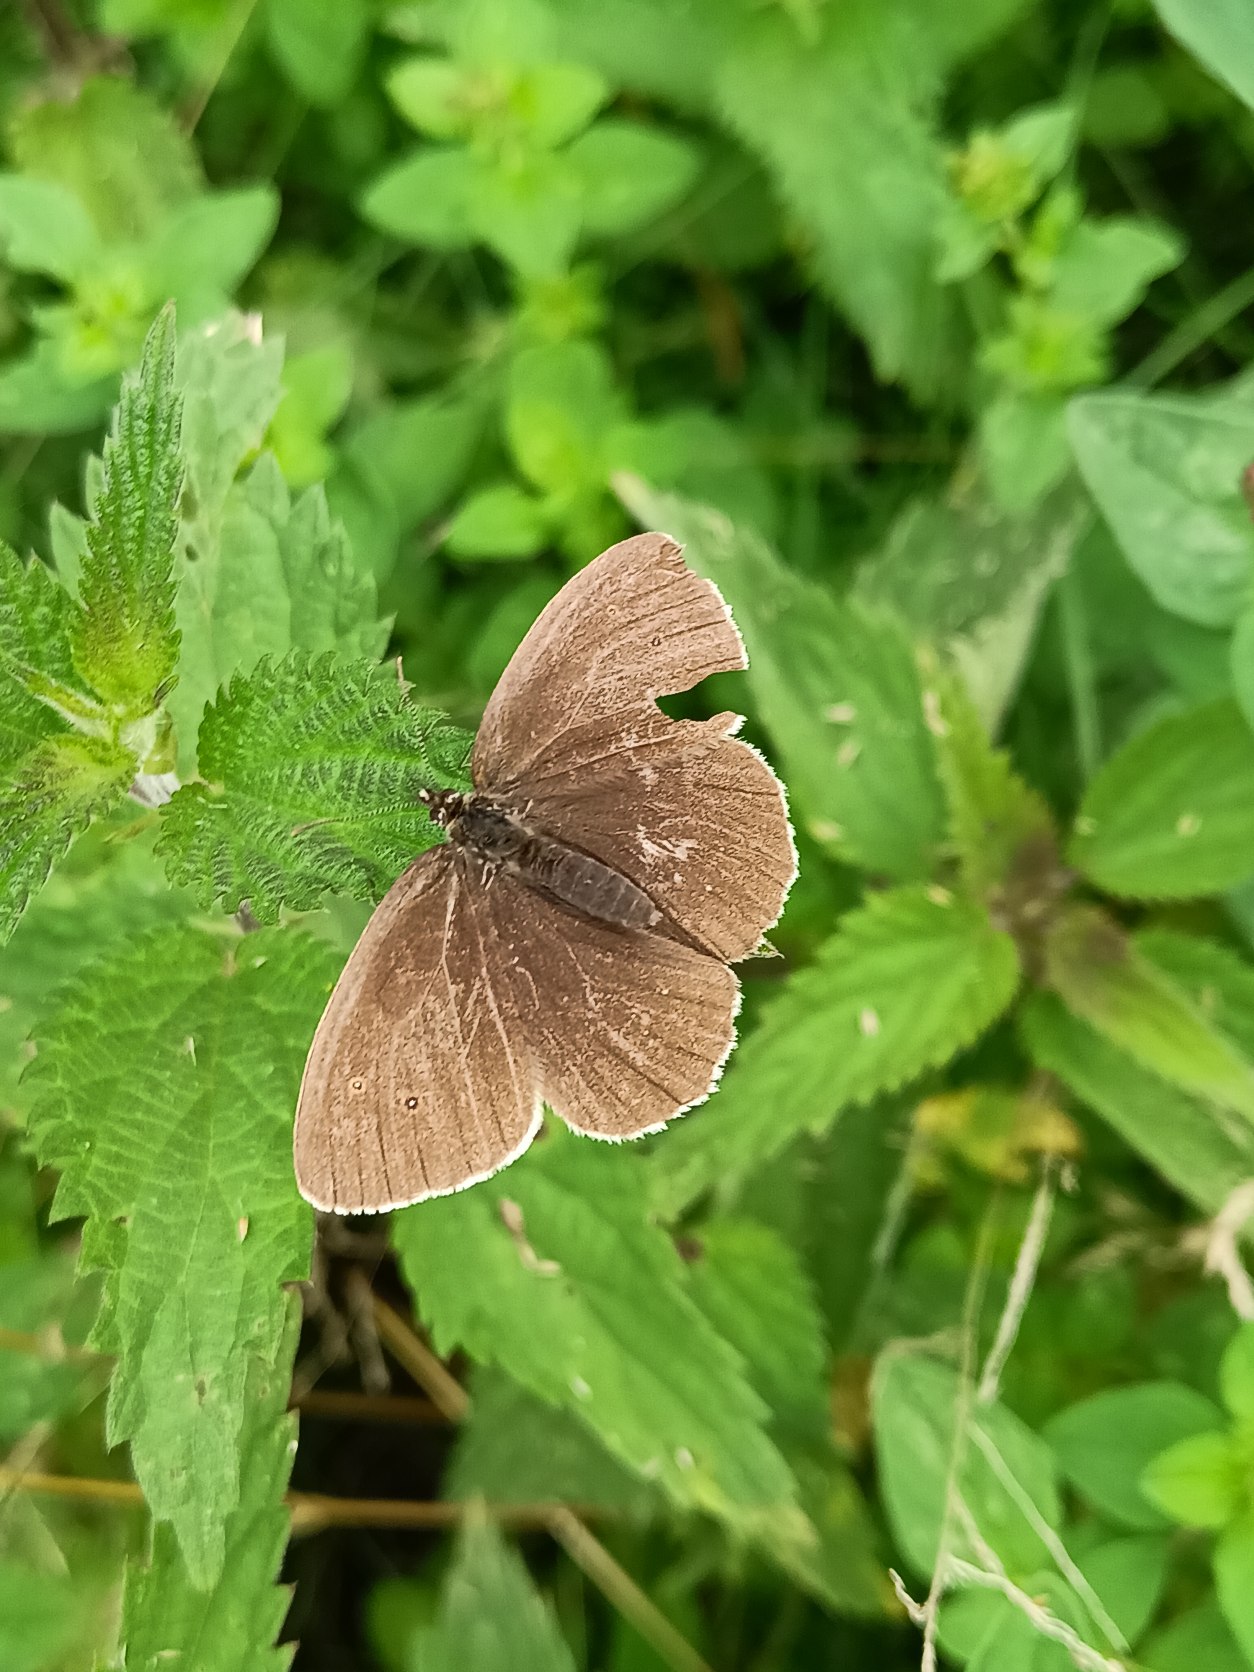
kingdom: Animalia
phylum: Arthropoda
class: Insecta
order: Lepidoptera
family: Nymphalidae
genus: Aphantopus
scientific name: Aphantopus hyperantus
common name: Engrandøje
